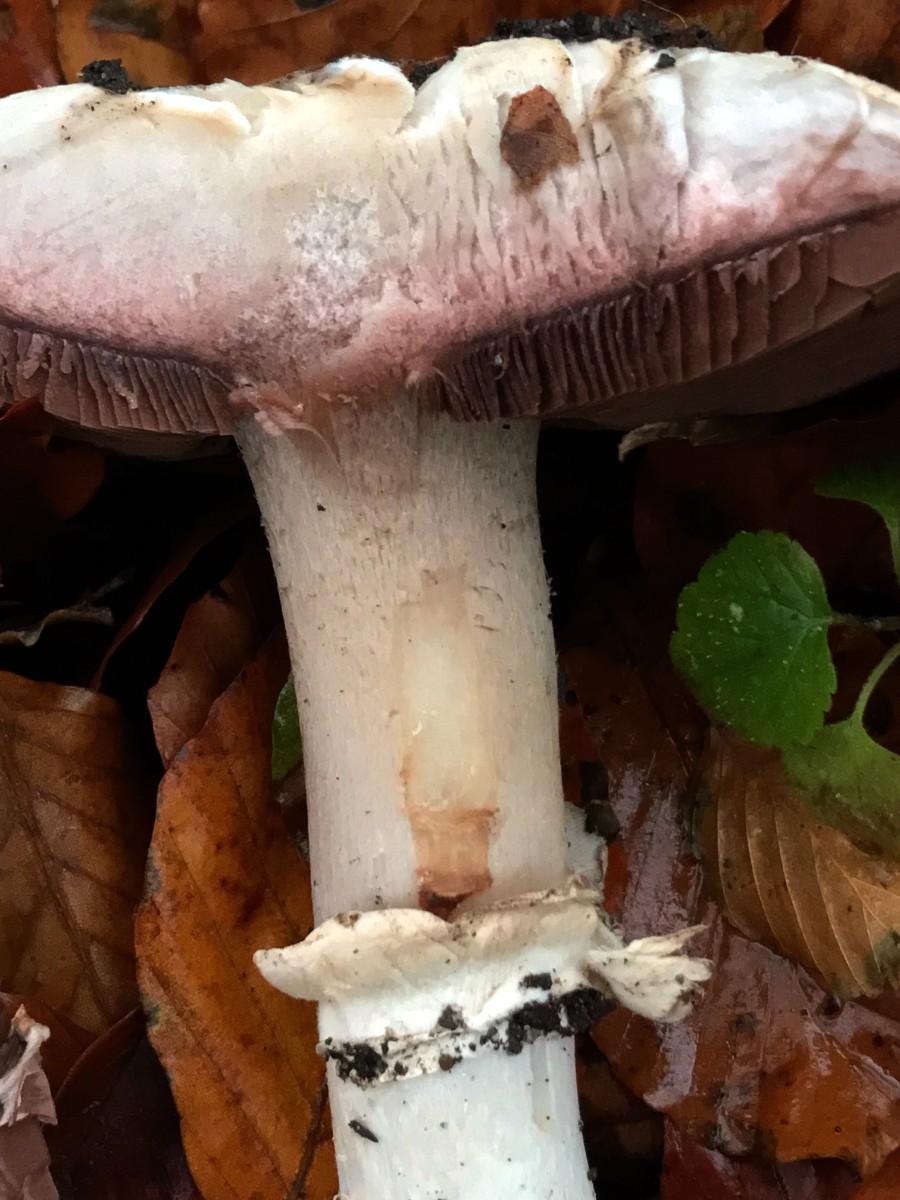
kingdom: Fungi
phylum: Basidiomycota
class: Agaricomycetes
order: Agaricales
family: Agaricaceae
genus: Agaricus
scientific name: Agaricus bitorquis
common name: vej-champignon
